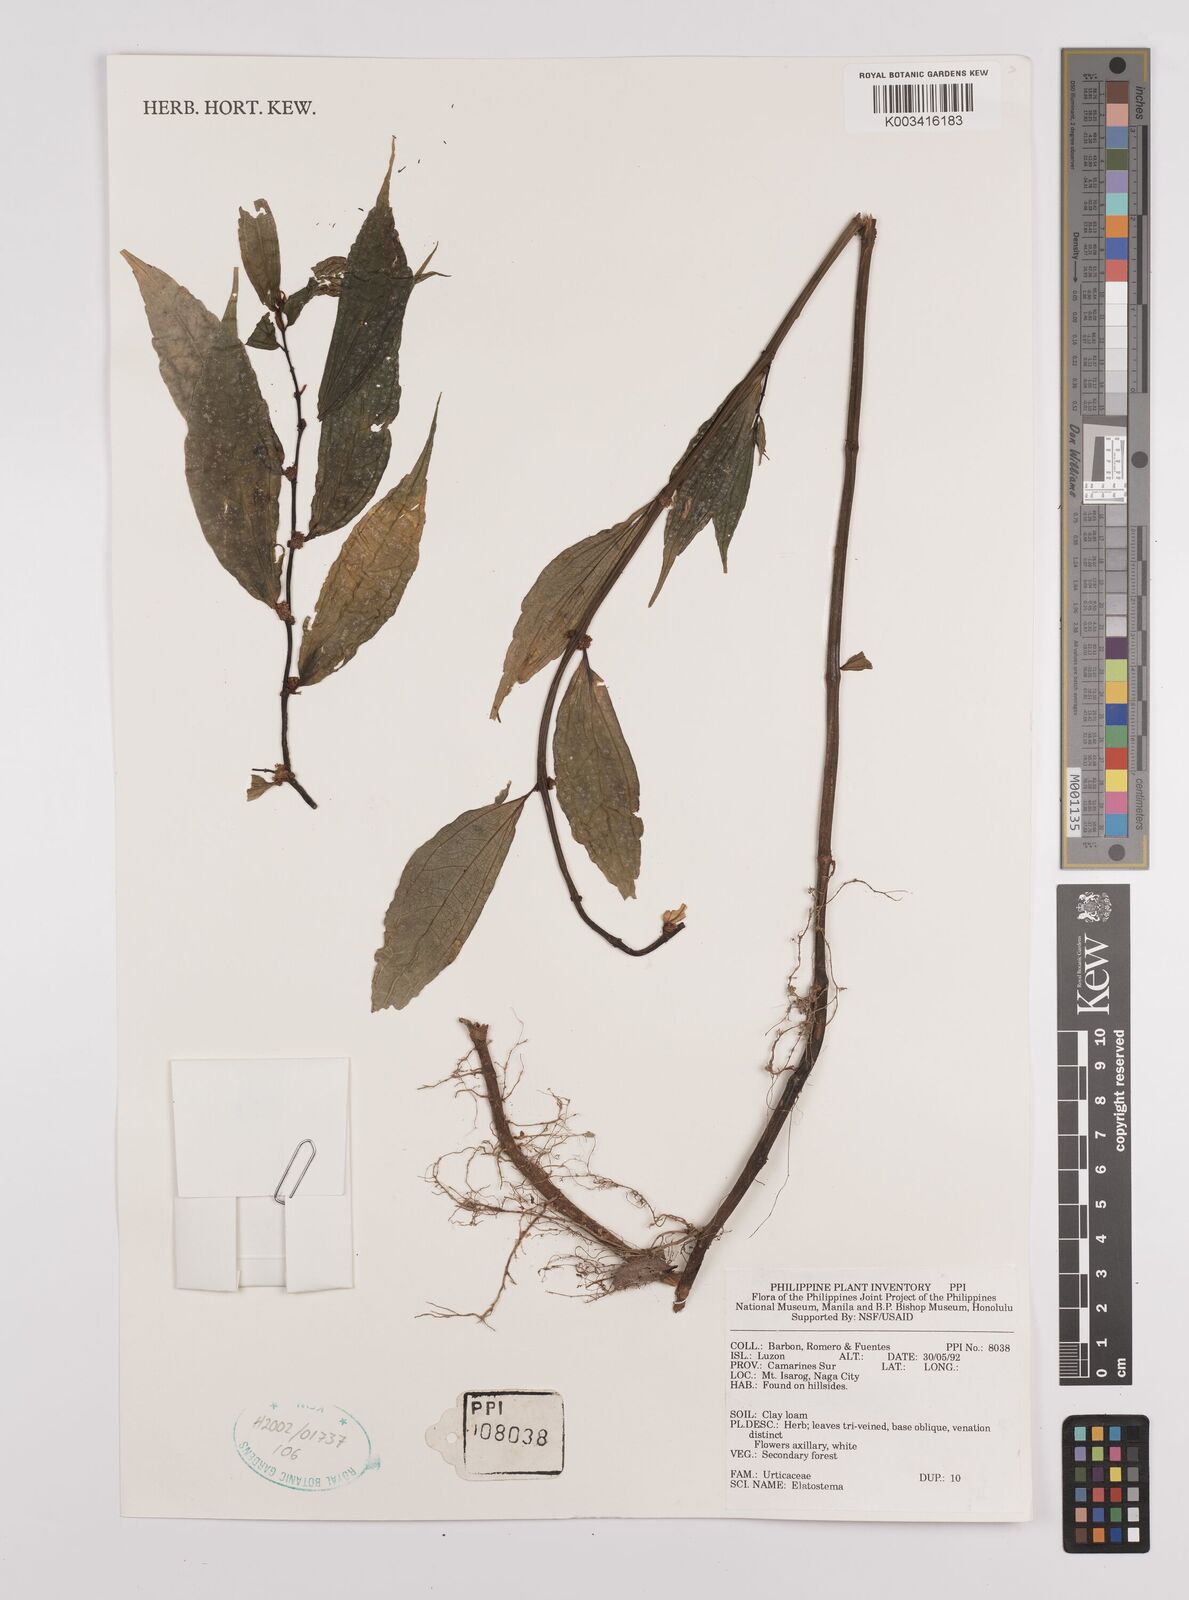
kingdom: Plantae
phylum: Tracheophyta
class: Magnoliopsida
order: Rosales
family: Urticaceae
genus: Elatostema
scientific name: Elatostema
